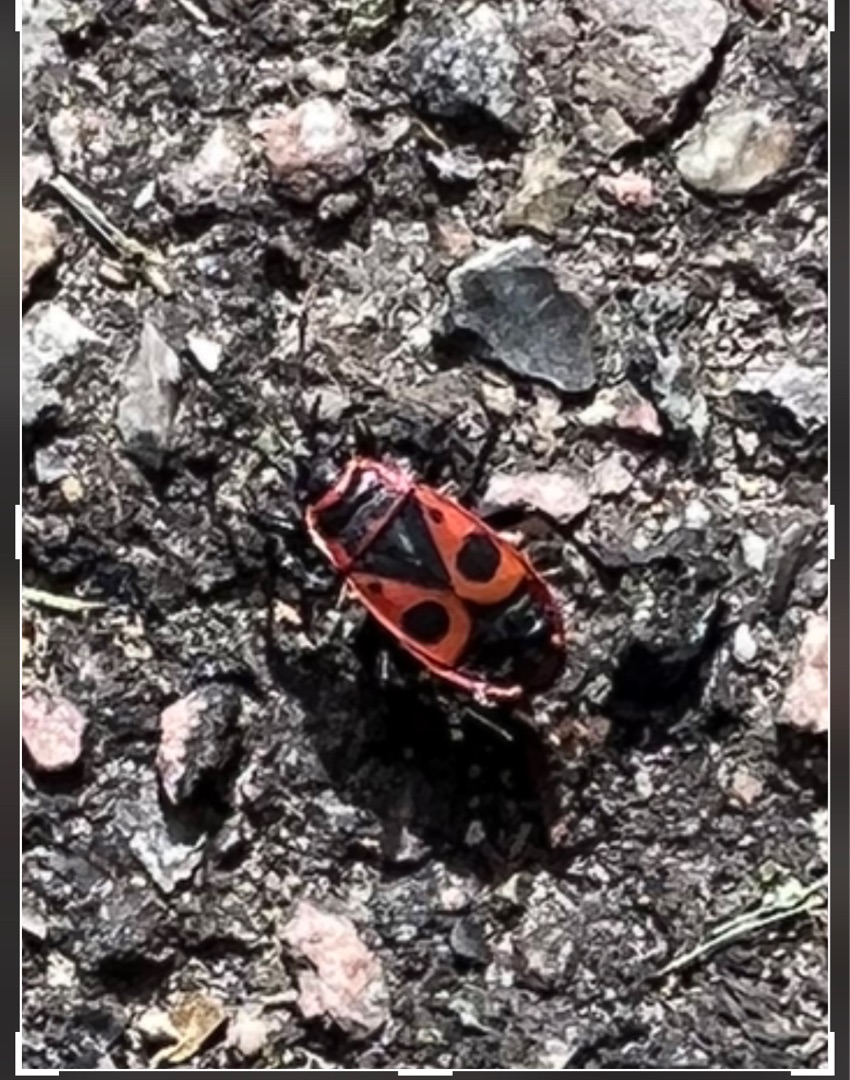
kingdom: Animalia
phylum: Arthropoda
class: Insecta
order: Hemiptera
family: Pyrrhocoridae
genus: Pyrrhocoris
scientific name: Pyrrhocoris apterus
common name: Ildtæge
